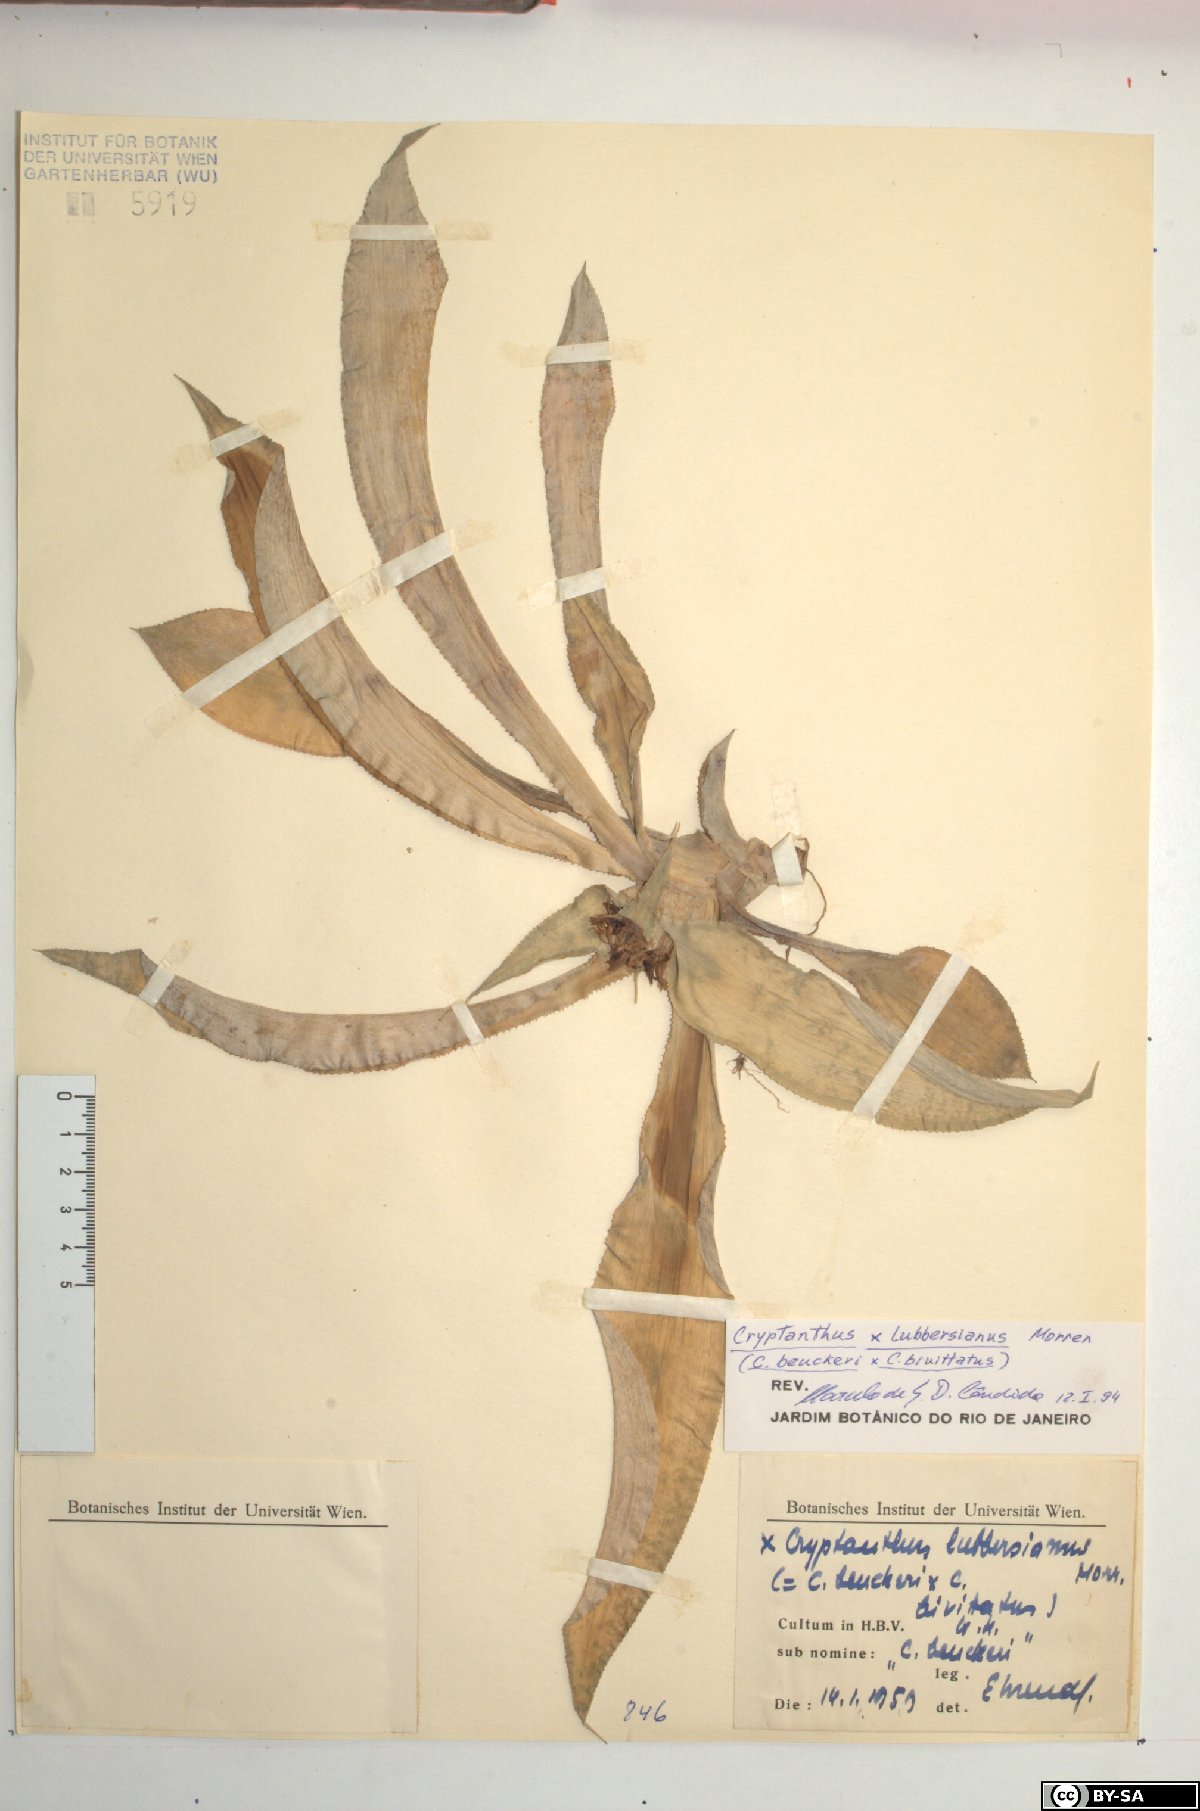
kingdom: Plantae
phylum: Tracheophyta
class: Liliopsida
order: Poales
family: Bromeliaceae
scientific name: Bromeliaceae
